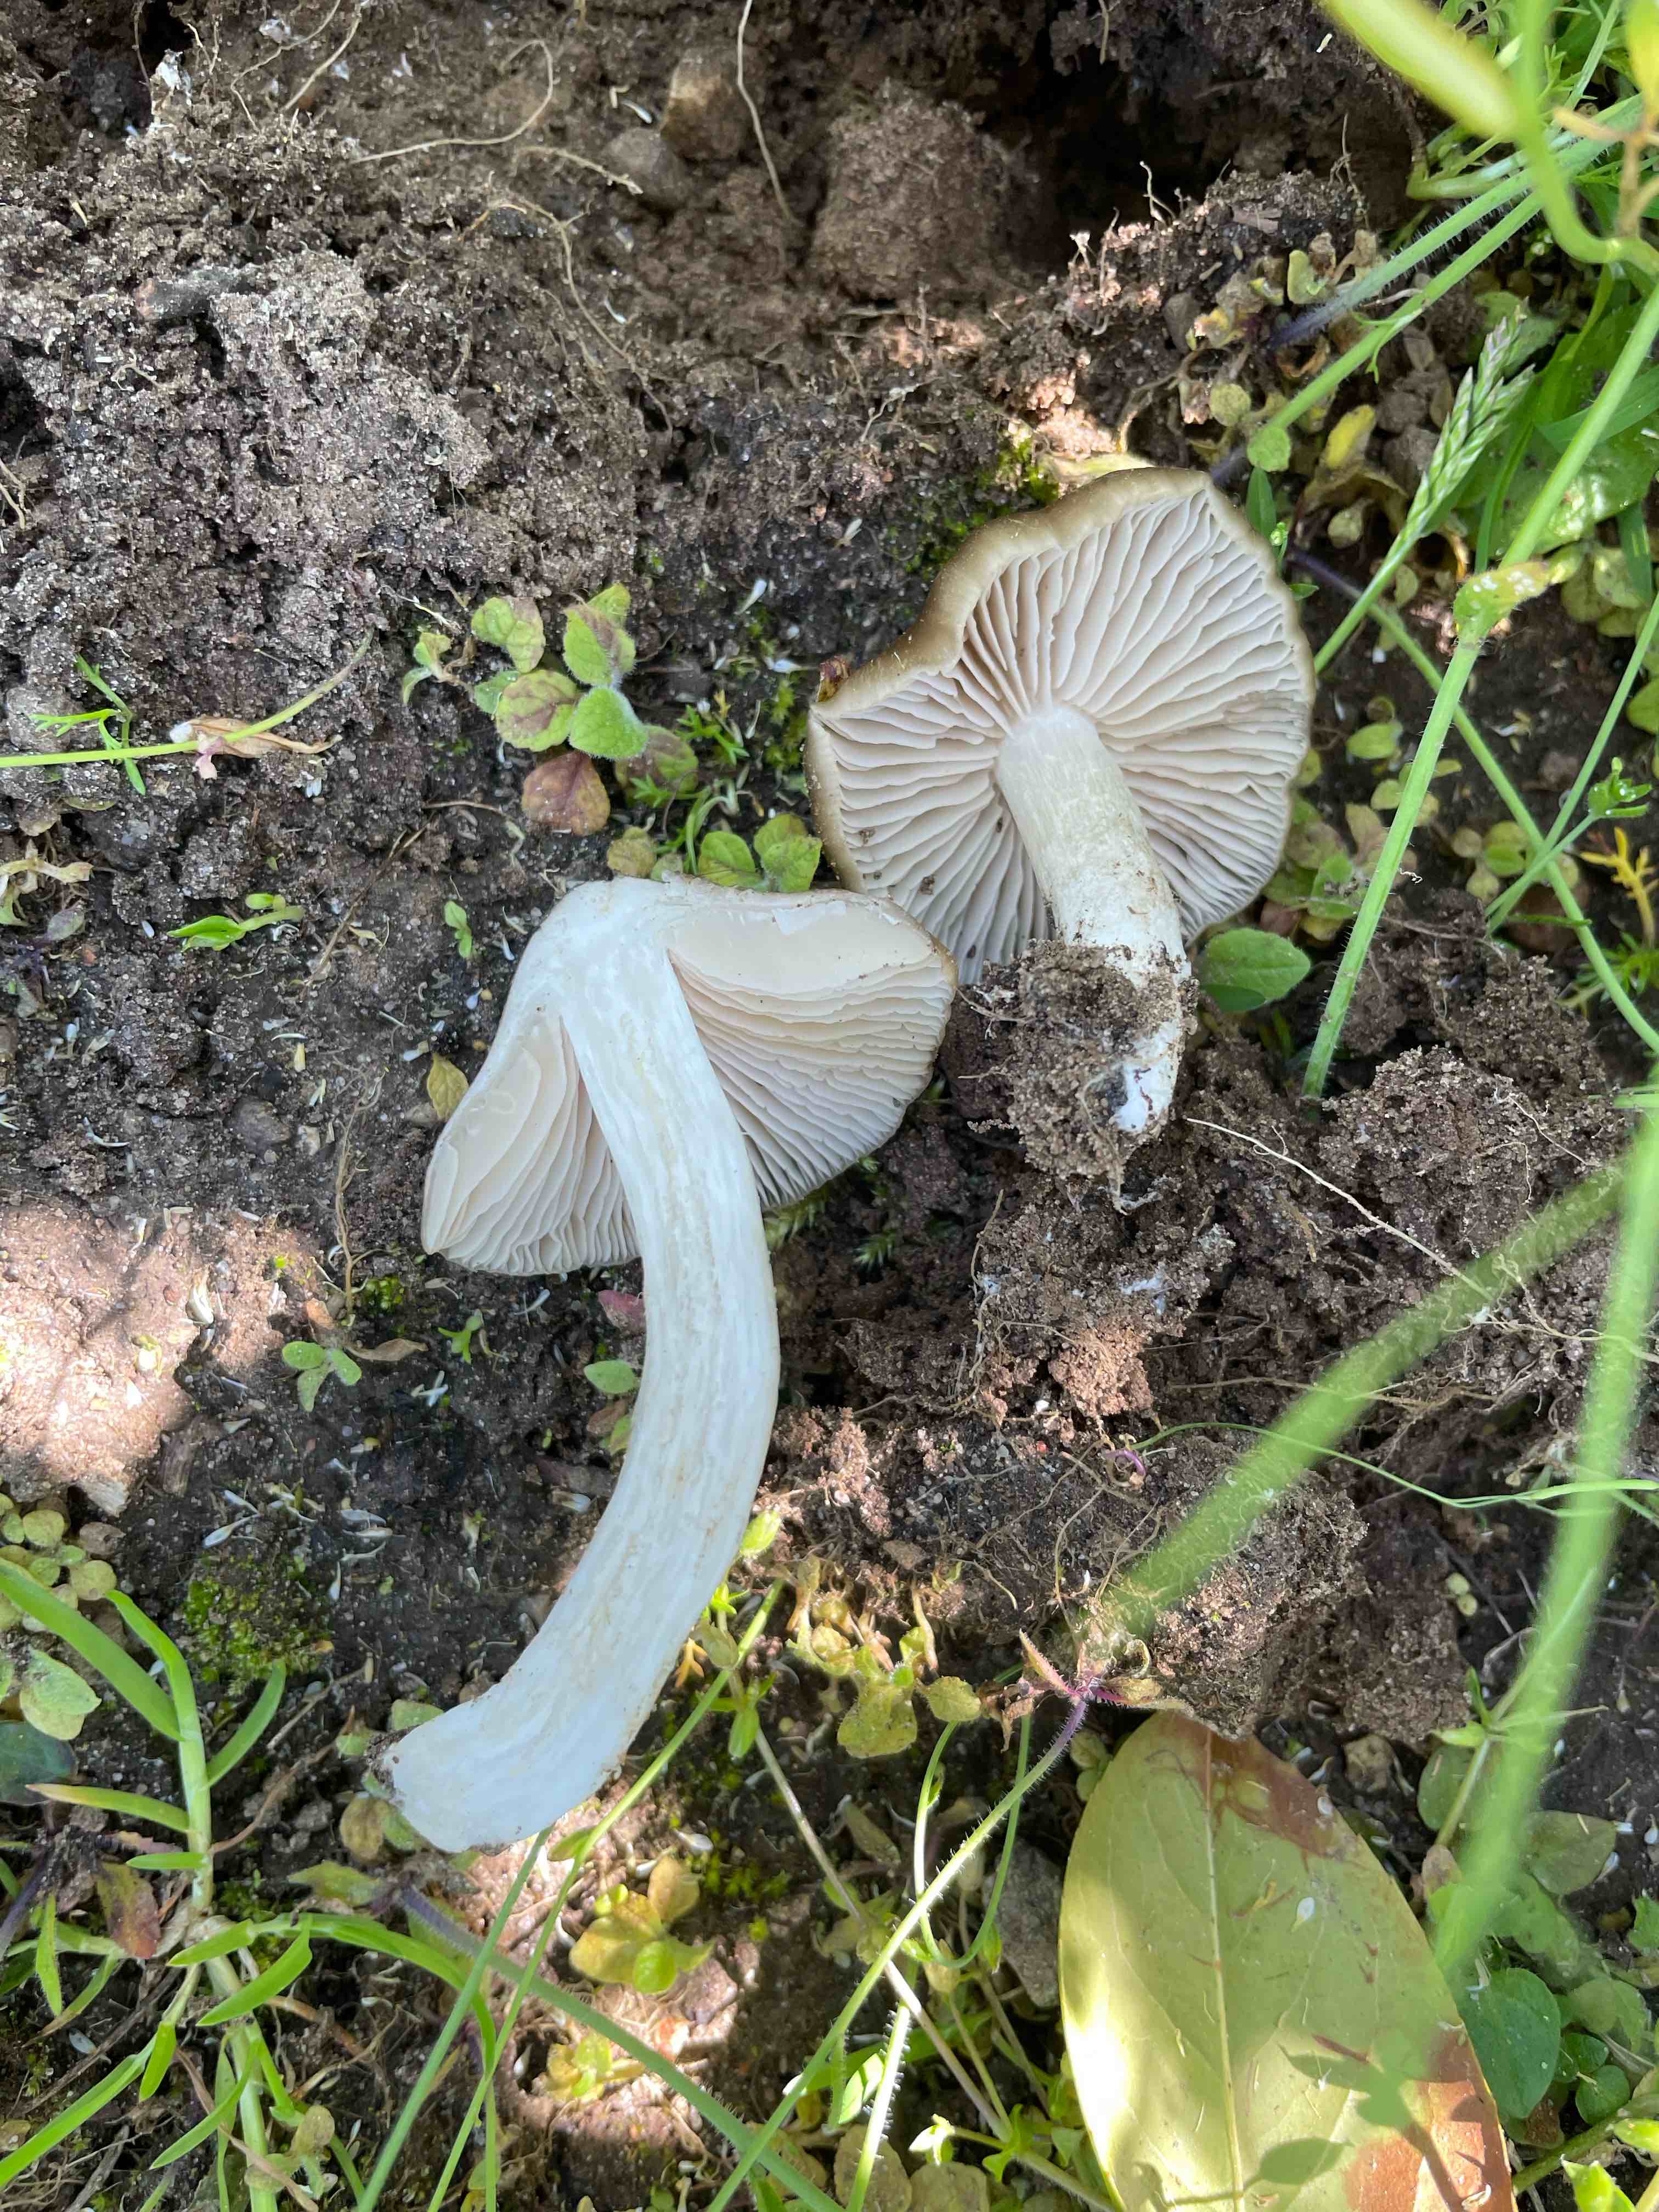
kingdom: Fungi
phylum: Basidiomycota
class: Agaricomycetes
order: Agaricales
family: Entolomataceae
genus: Entoloma
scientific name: Entoloma clypeatum
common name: flammet rødblad
